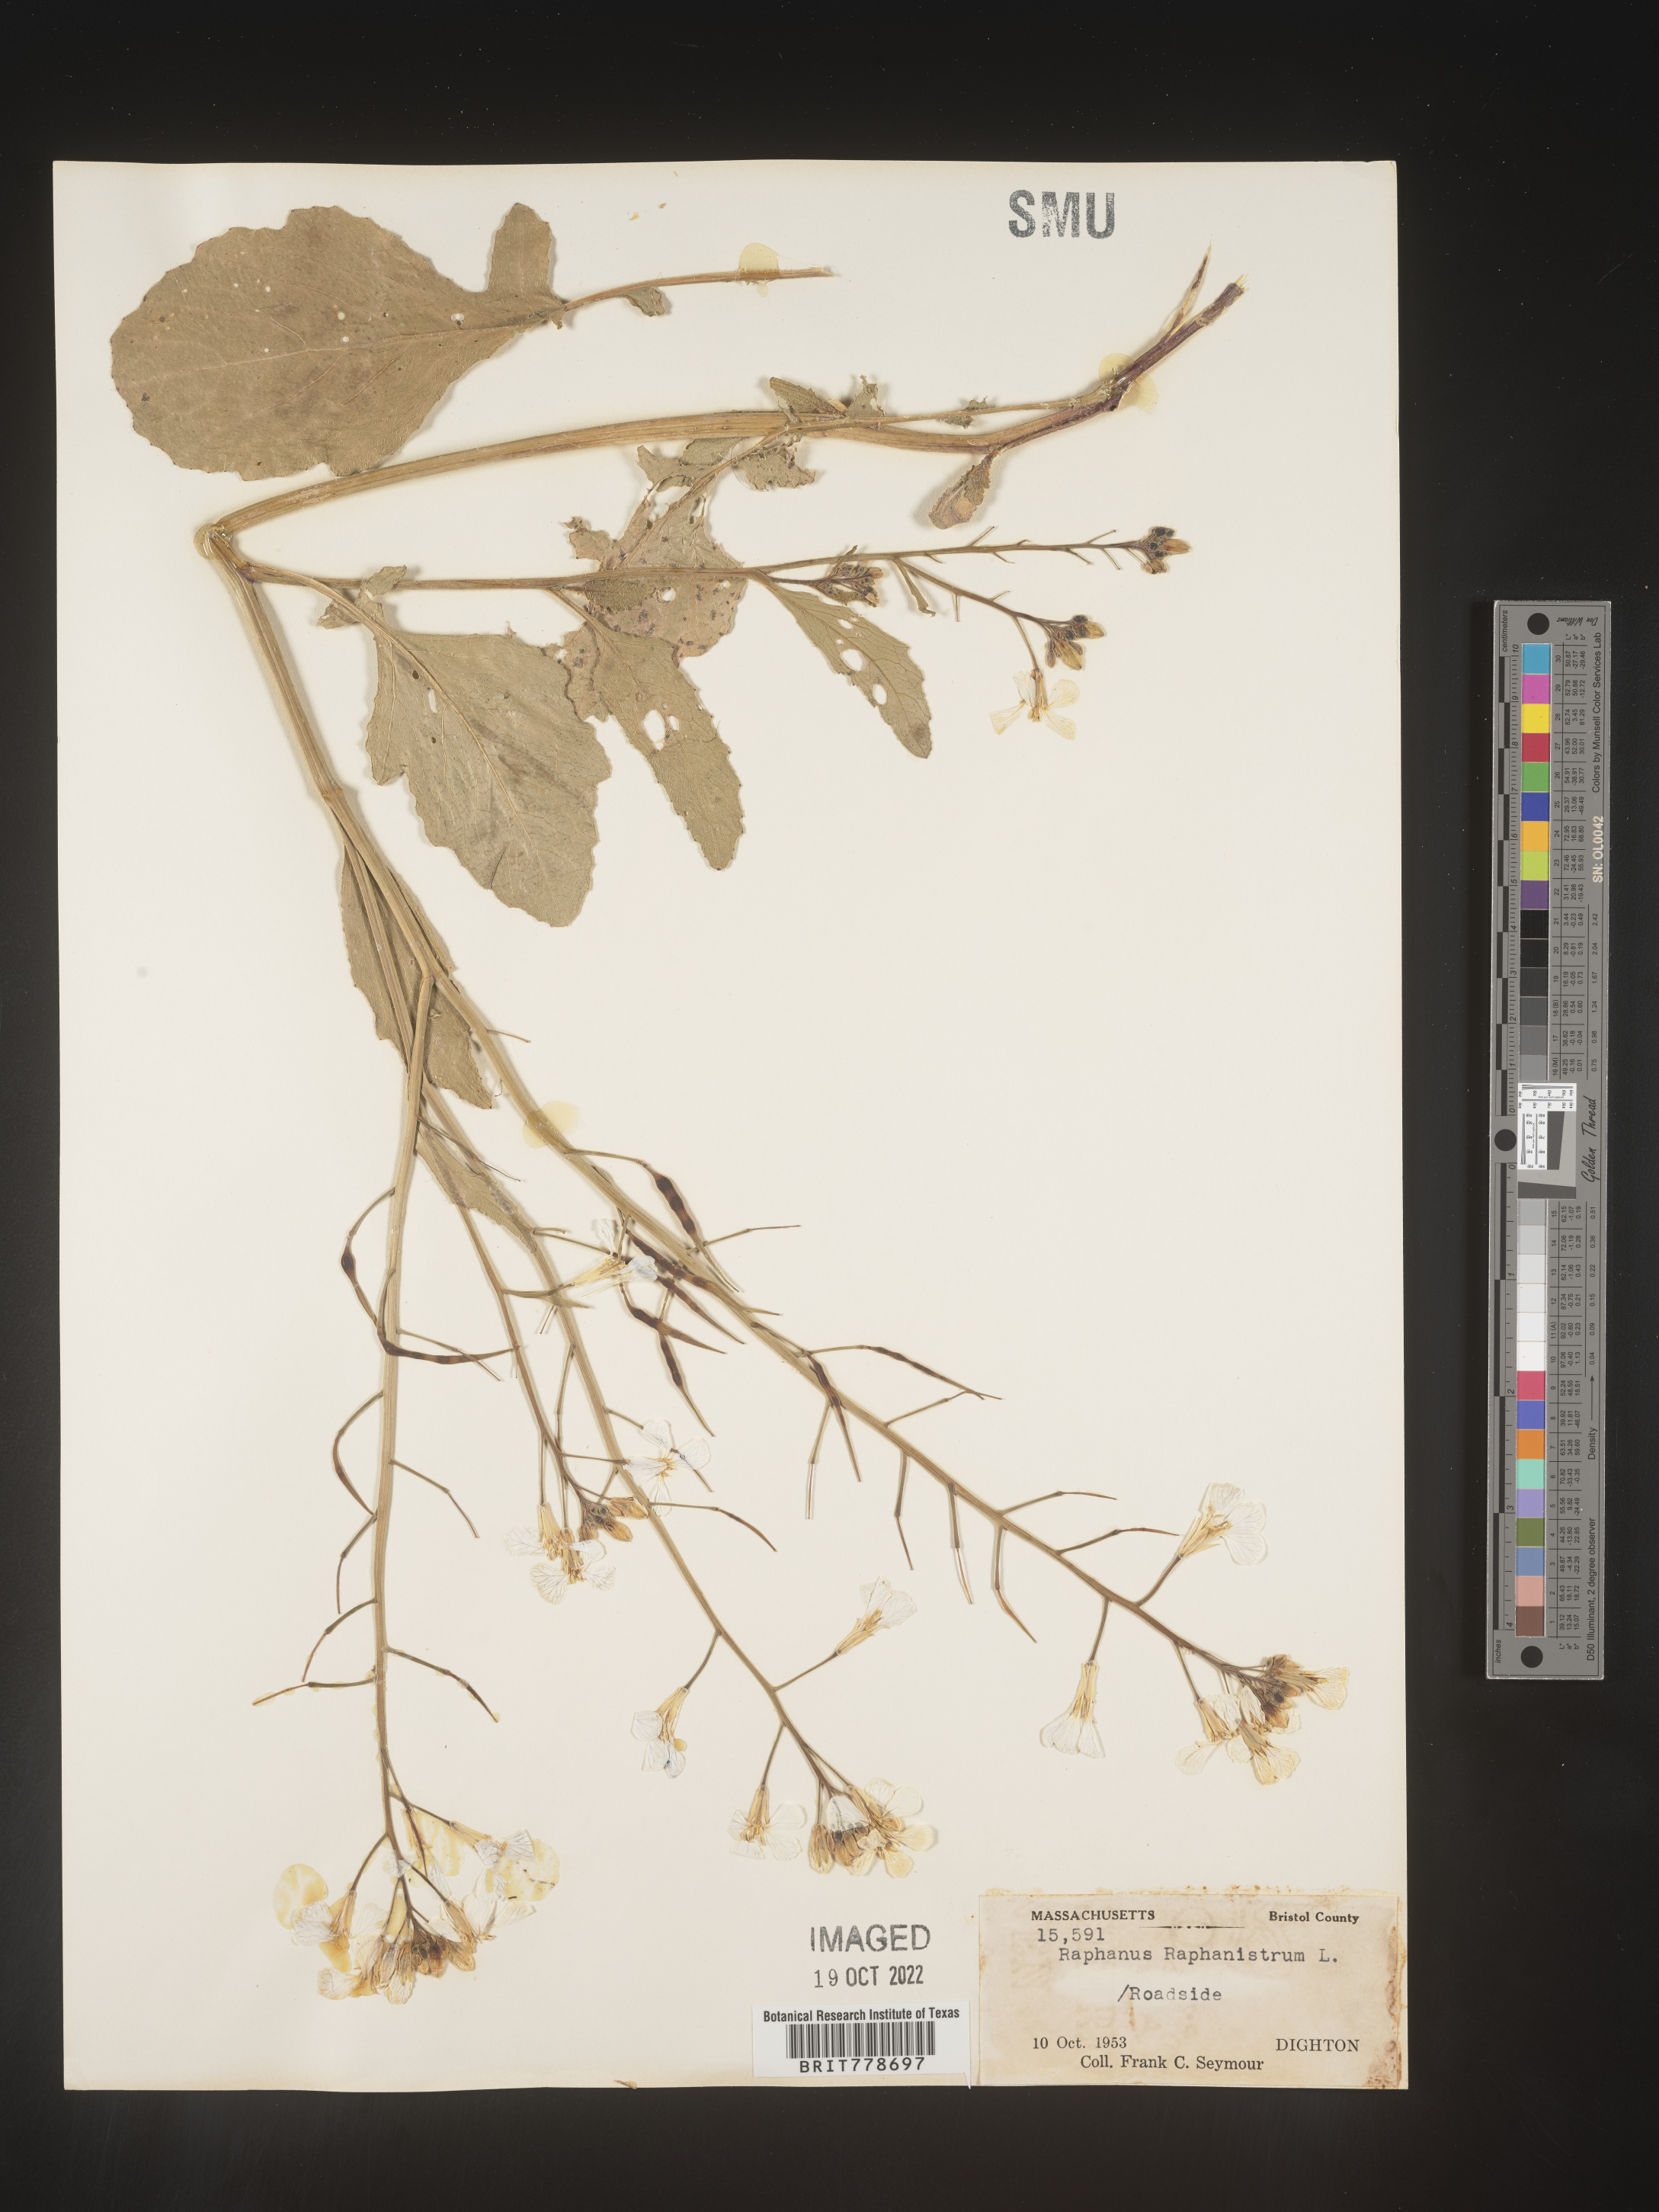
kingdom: Plantae
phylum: Tracheophyta
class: Magnoliopsida
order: Brassicales
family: Brassicaceae
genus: Raphanus
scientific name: Raphanus raphanistrum
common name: Wild radish
